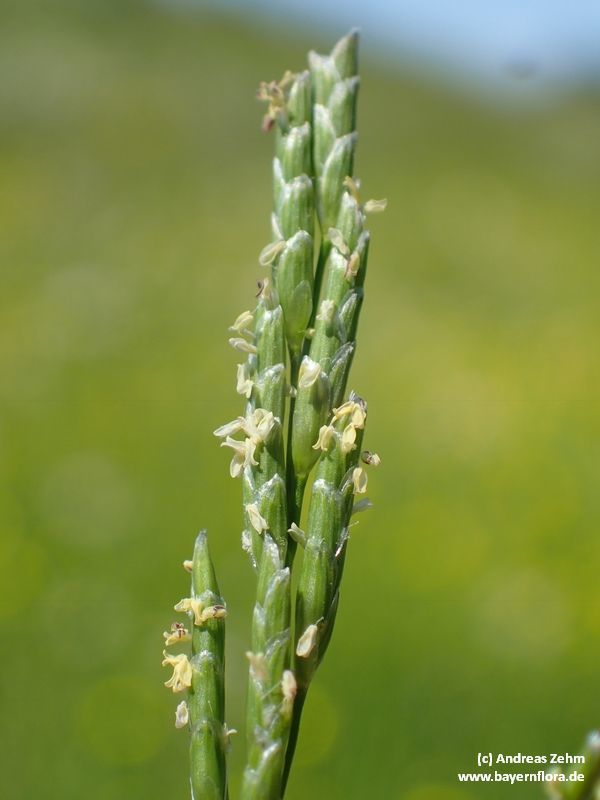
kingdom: Plantae
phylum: Tracheophyta
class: Liliopsida
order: Poales
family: Poaceae
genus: Glyceria
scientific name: Glyceria notata
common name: Plicate sweet-grass
